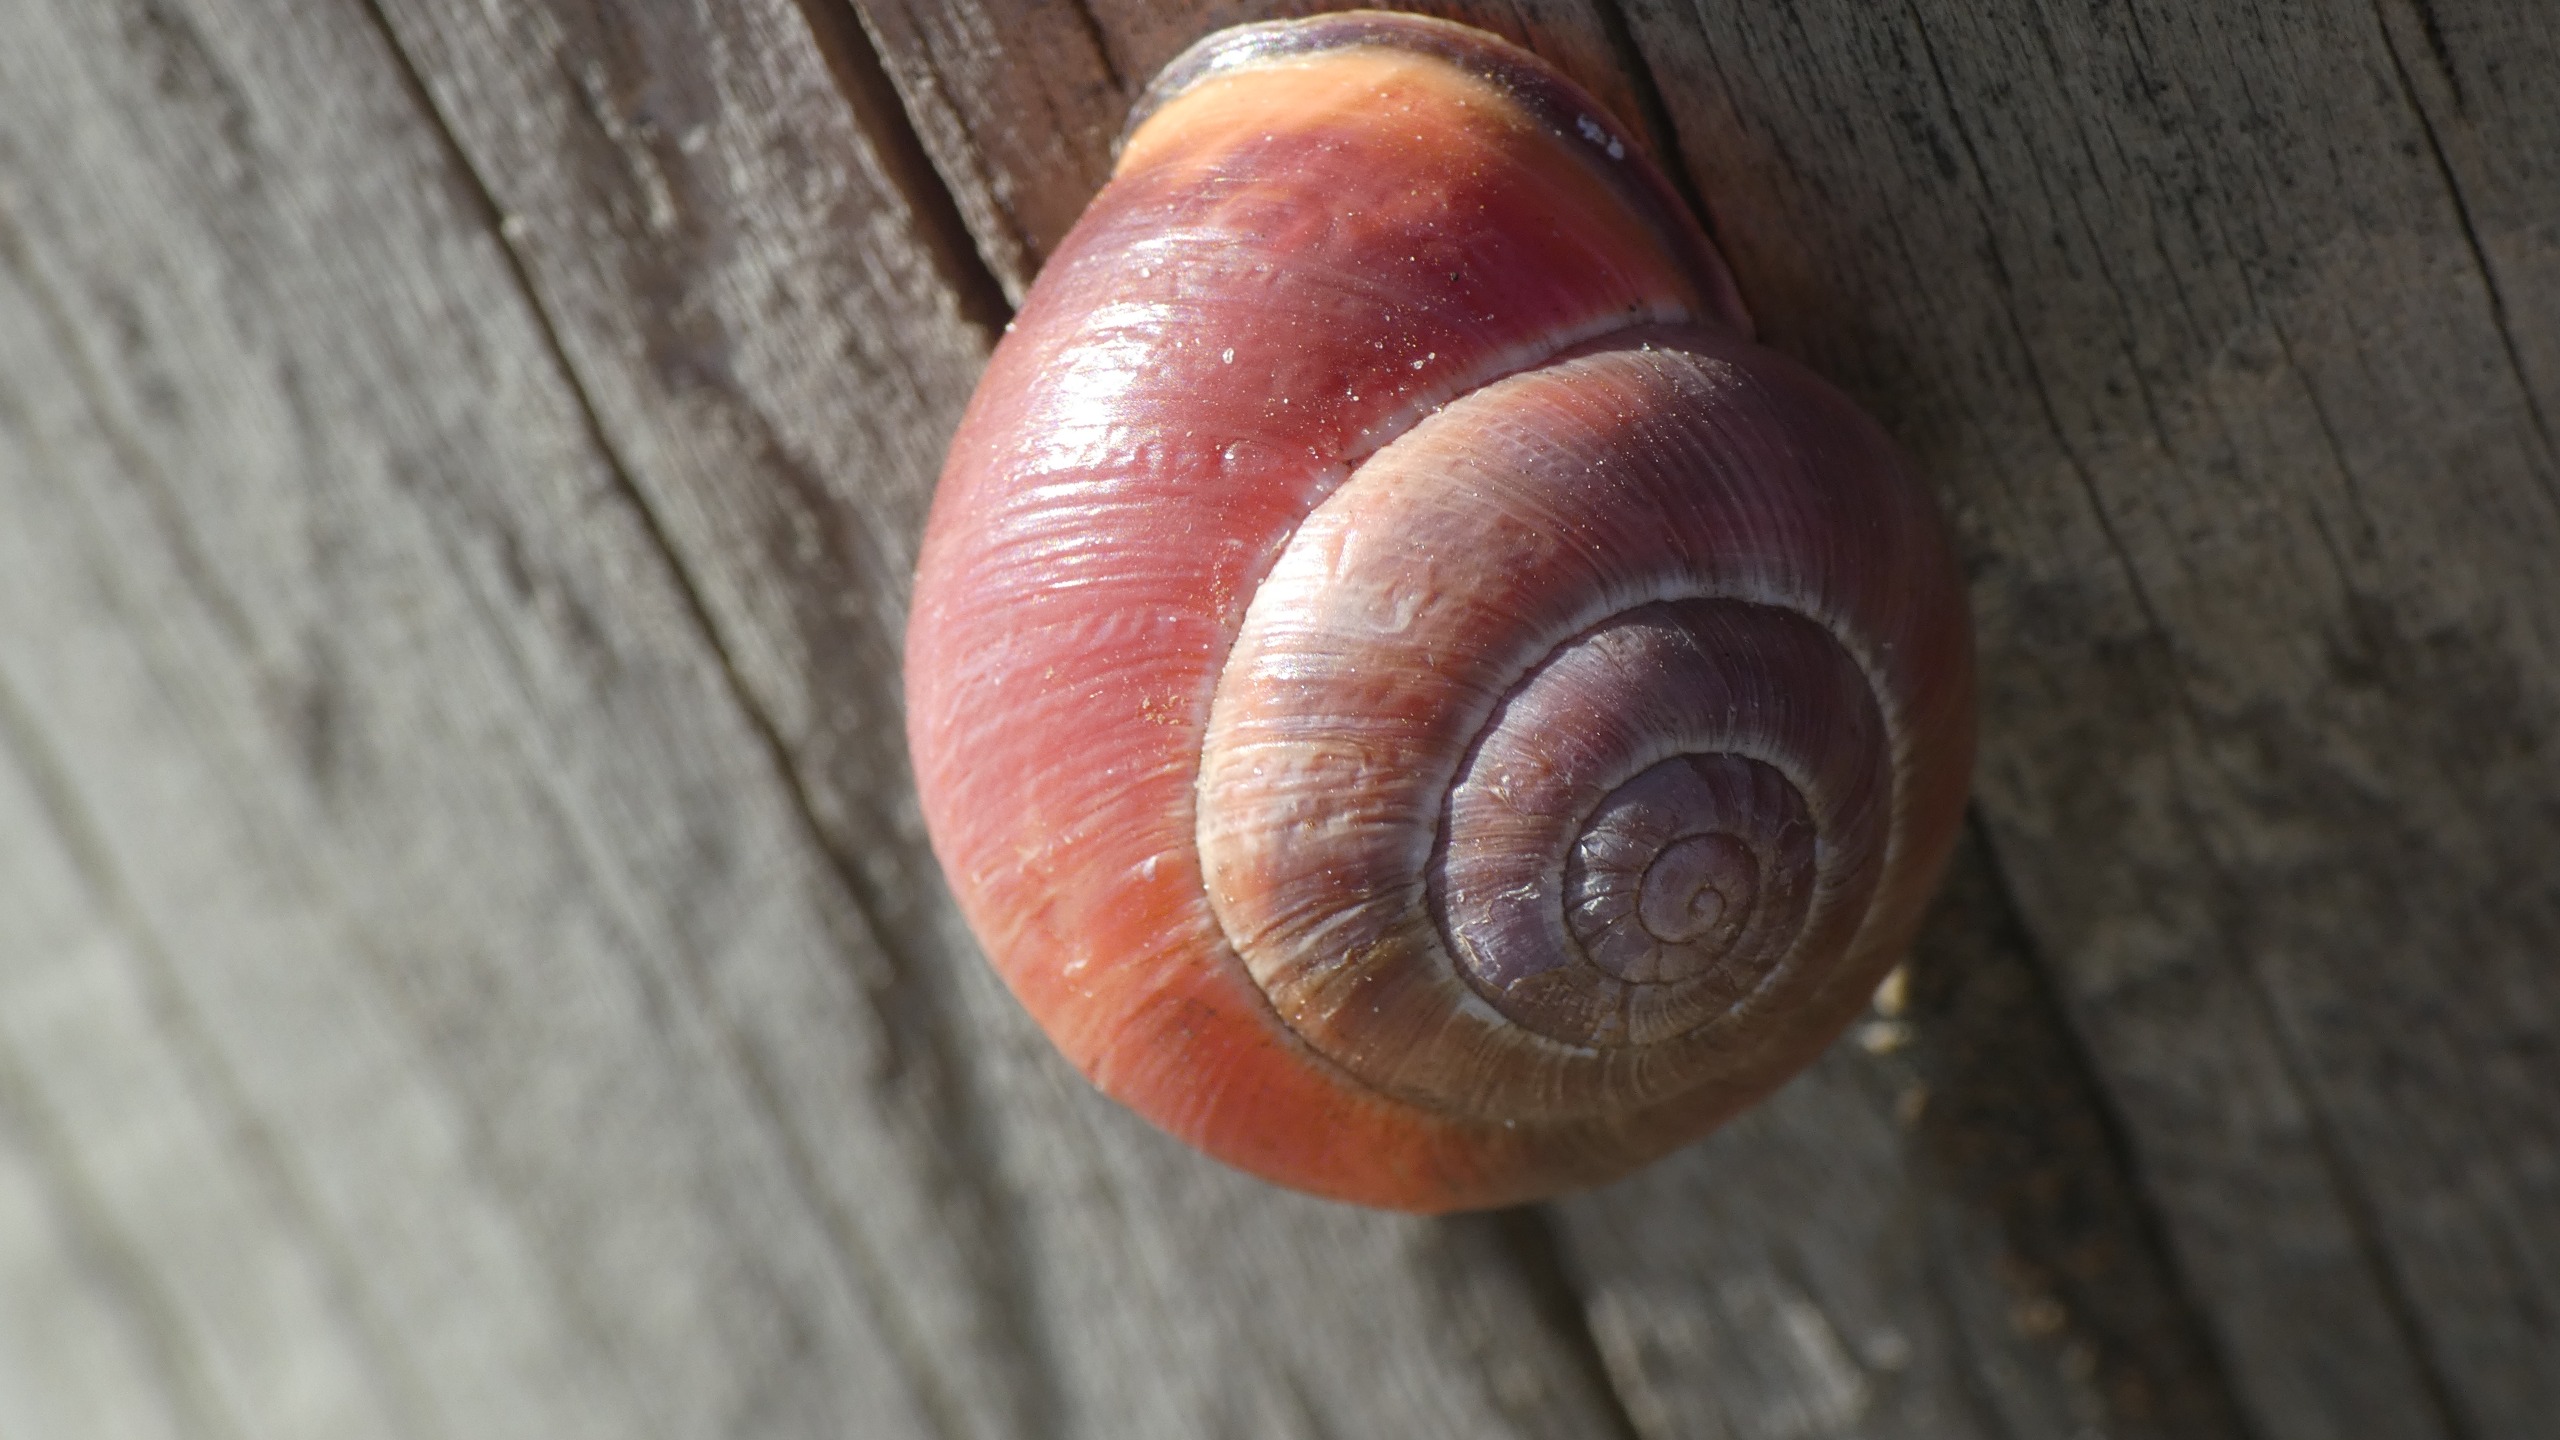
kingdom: Animalia
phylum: Mollusca
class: Gastropoda
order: Stylommatophora
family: Helicidae
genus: Cepaea
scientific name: Cepaea nemoralis
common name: Lundsnegl
